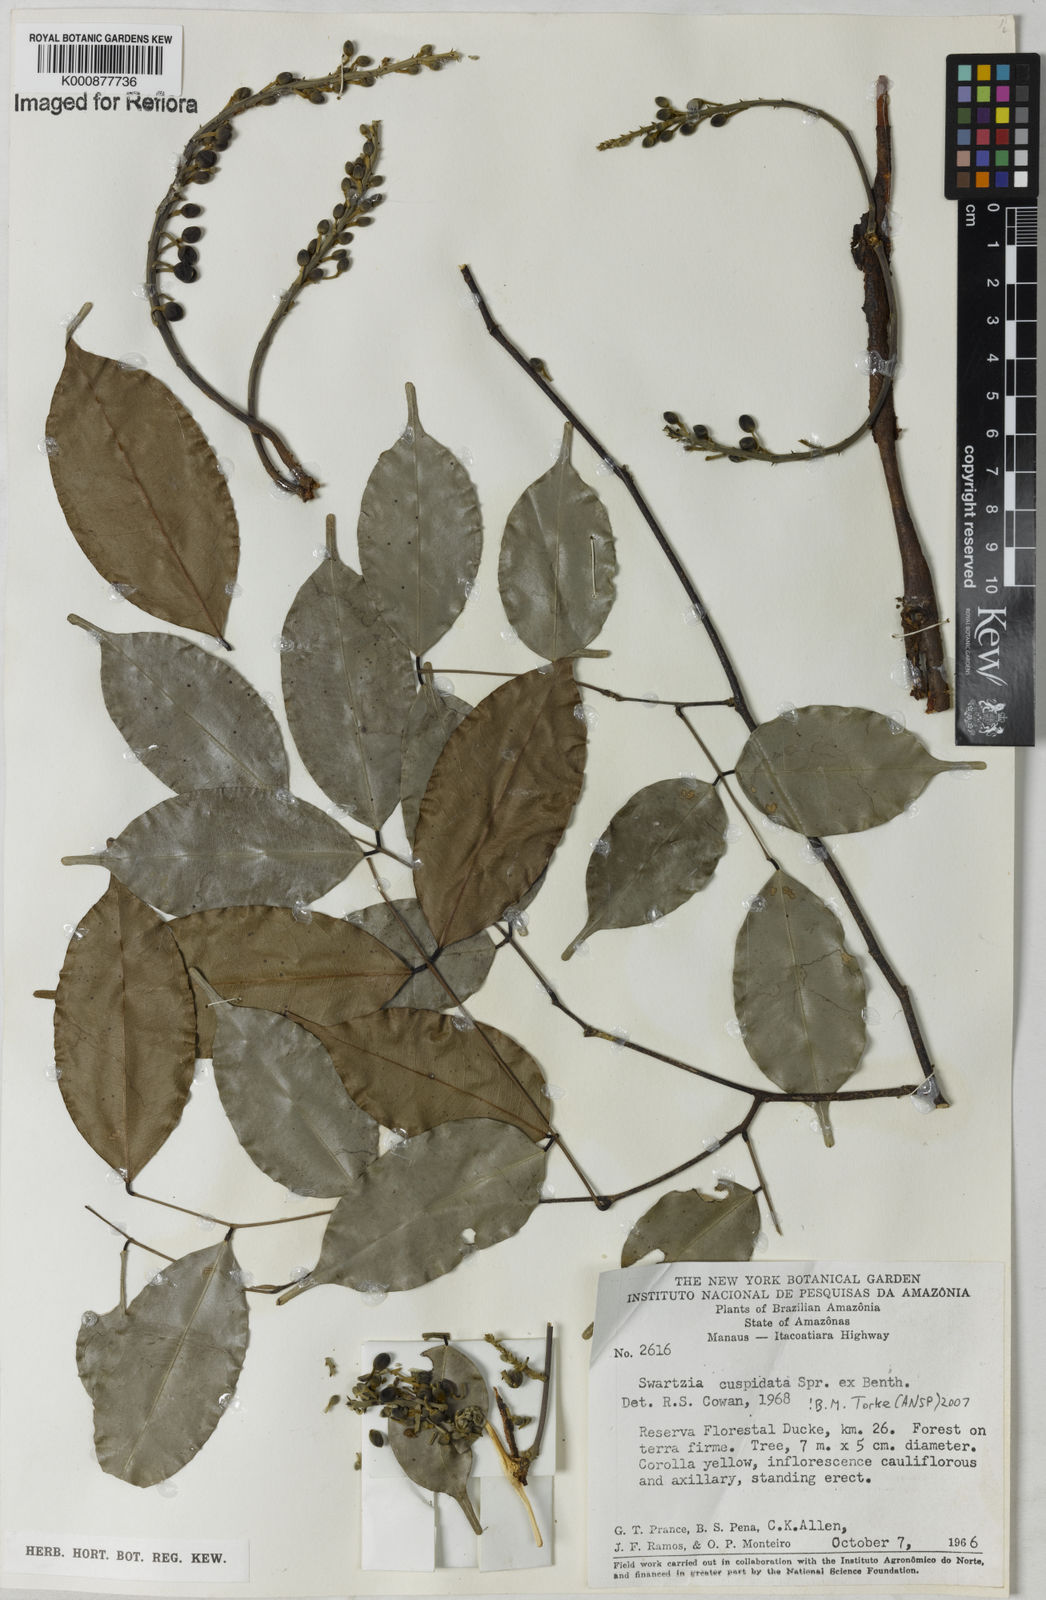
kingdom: Plantae
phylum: Tracheophyta
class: Magnoliopsida
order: Fabales
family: Fabaceae
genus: Swartzia
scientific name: Swartzia cuspidata
